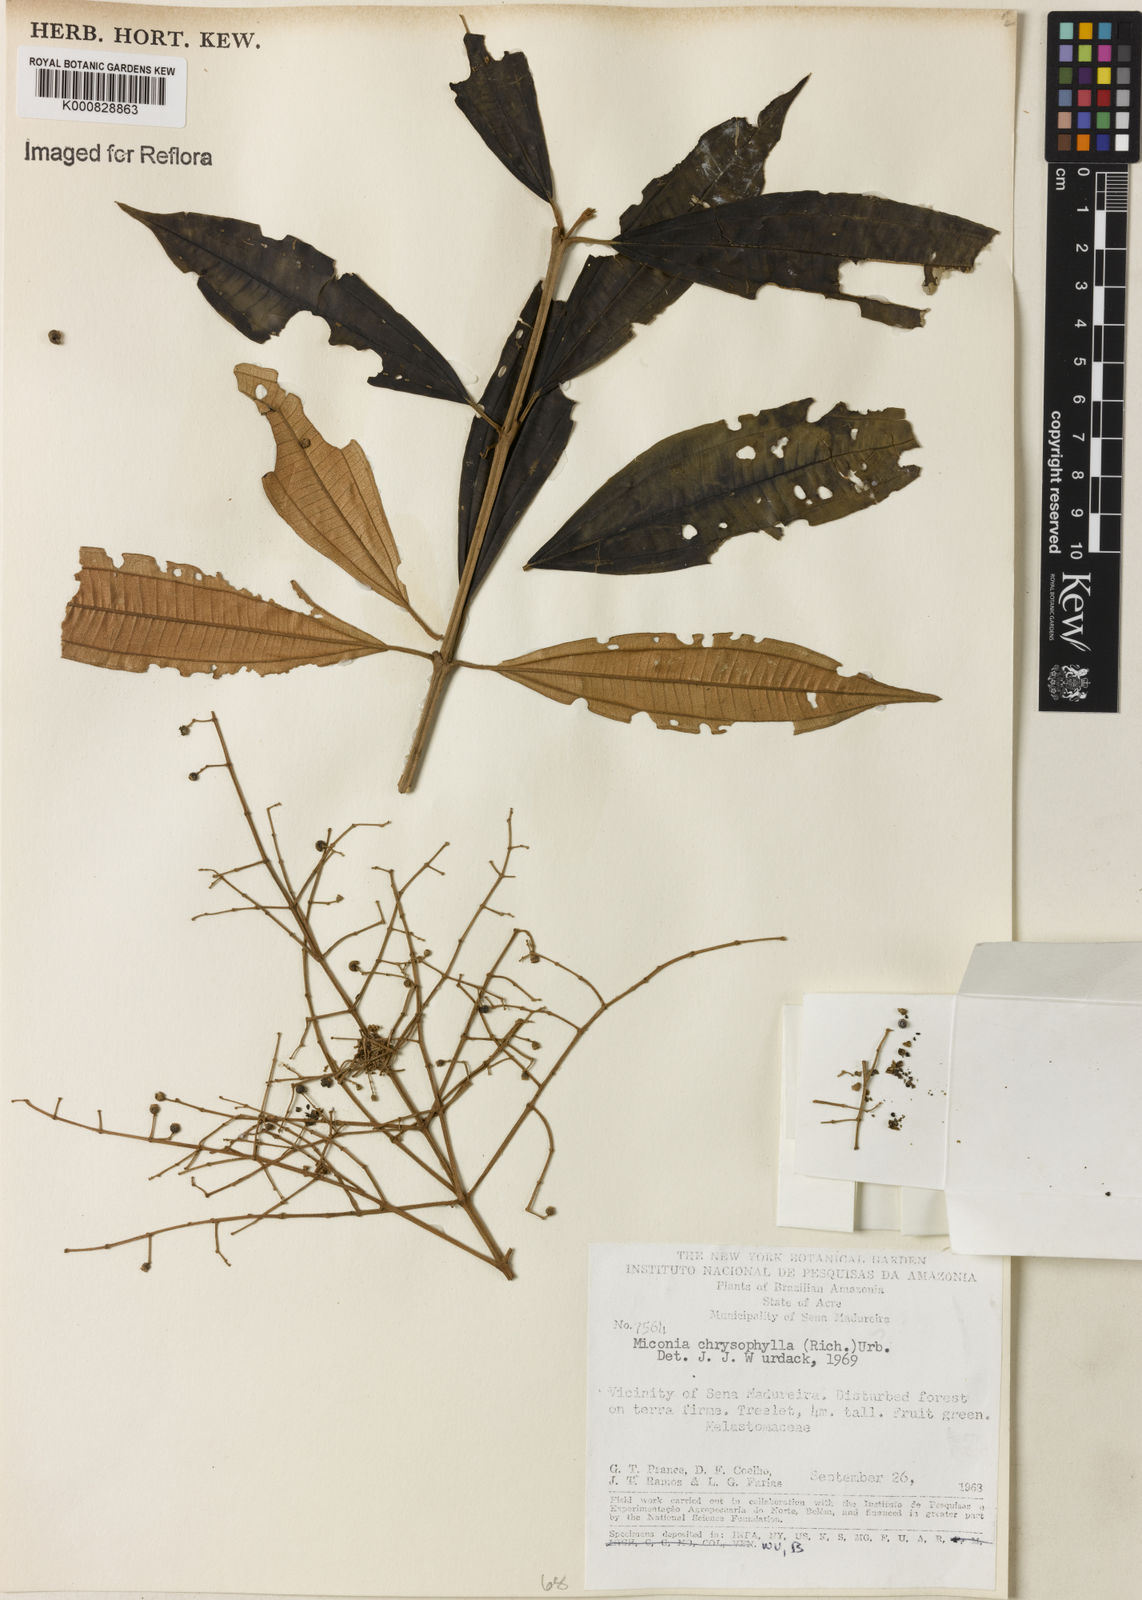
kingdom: Plantae
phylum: Tracheophyta
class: Magnoliopsida
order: Myrtales
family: Melastomataceae
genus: Miconia
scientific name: Miconia chrysophylla
